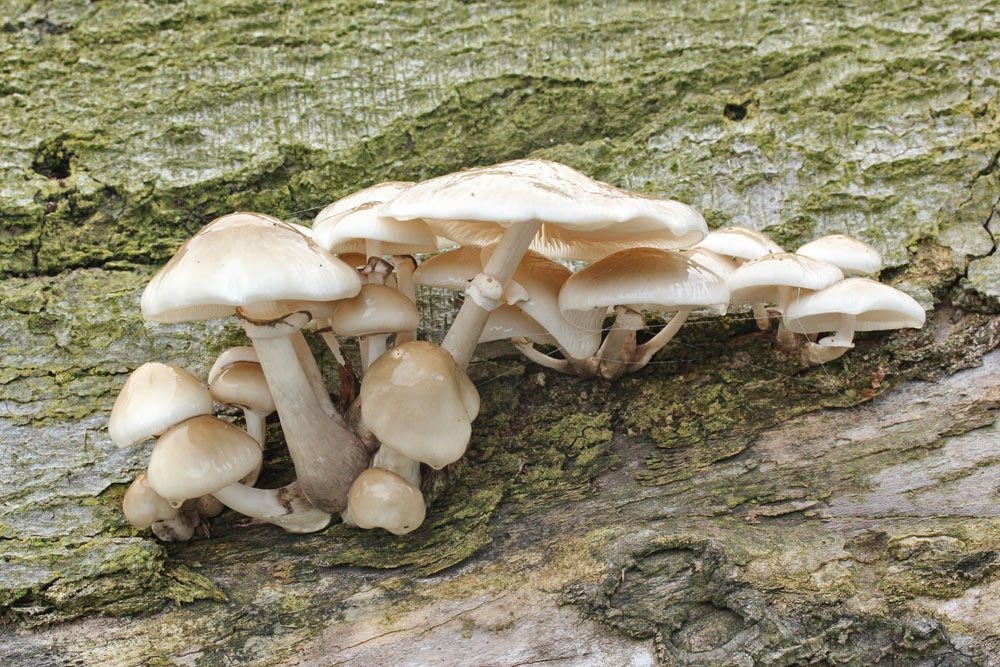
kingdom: Fungi
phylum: Basidiomycota
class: Agaricomycetes
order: Agaricales
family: Physalacriaceae
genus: Mucidula
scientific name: Mucidula mucida
